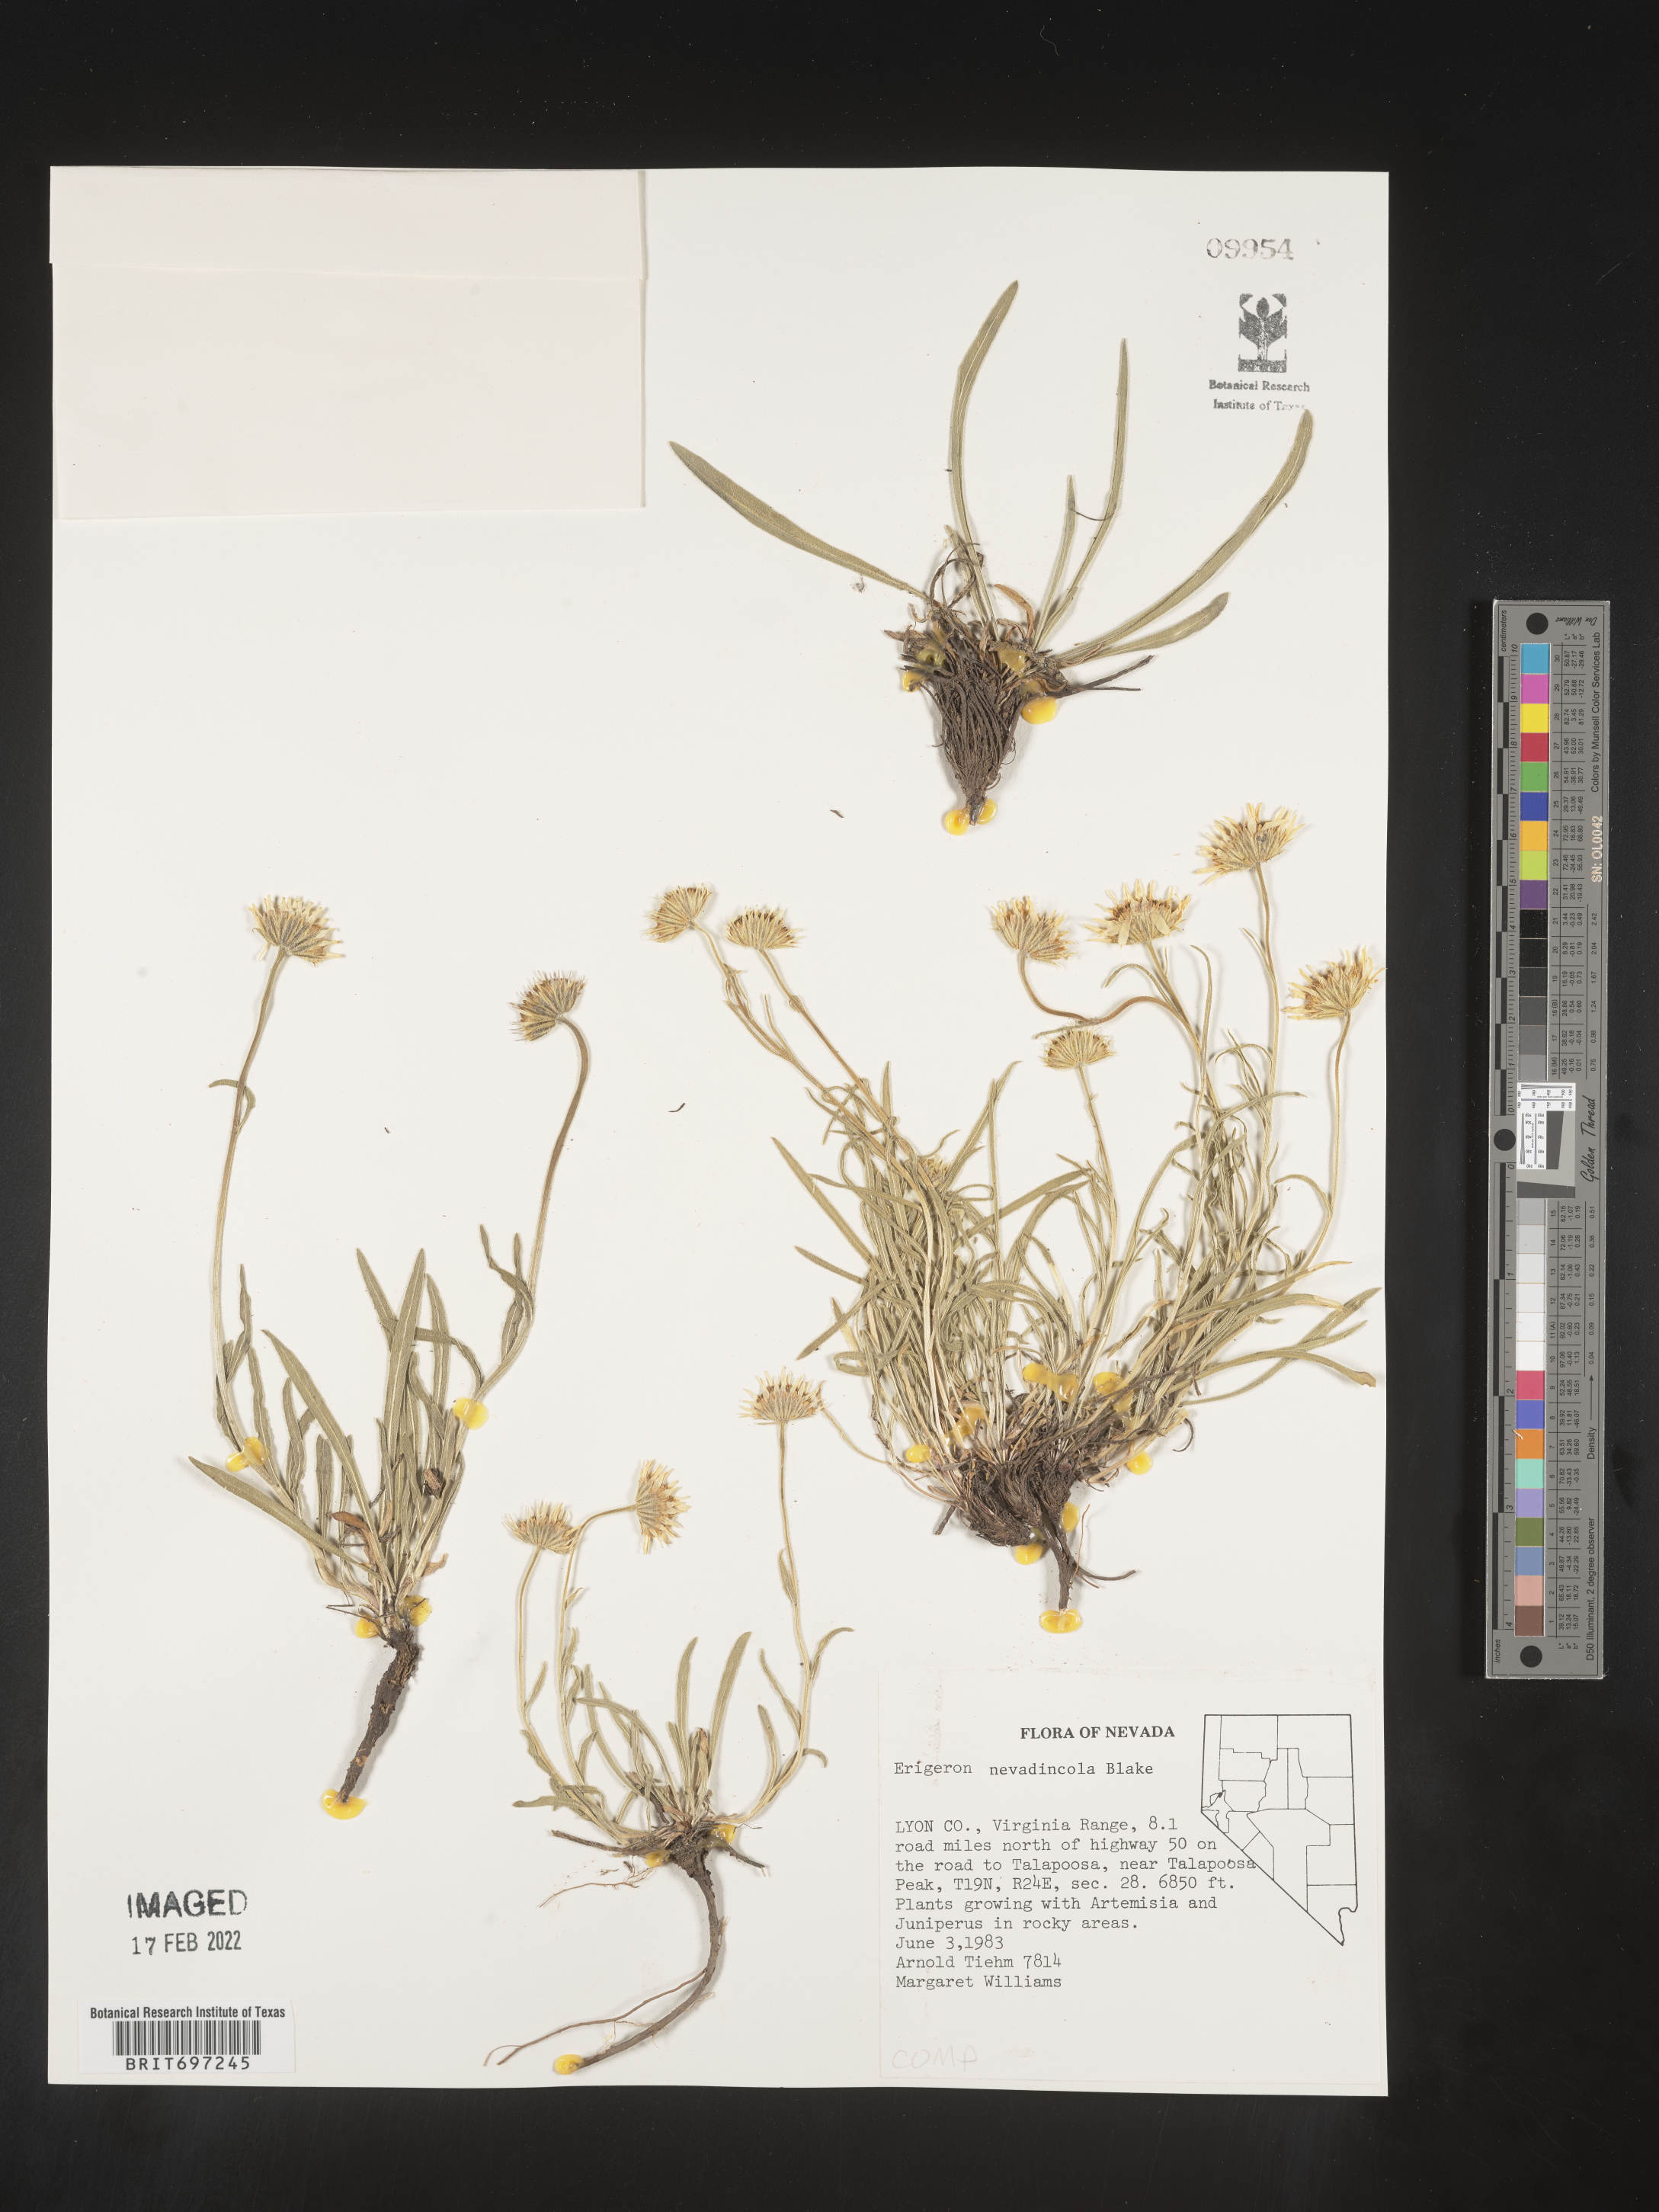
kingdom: Plantae
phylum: Tracheophyta
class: Magnoliopsida
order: Asterales
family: Asteraceae
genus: Erigeron
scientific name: Erigeron eatonii
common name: Eaton's fleabane
